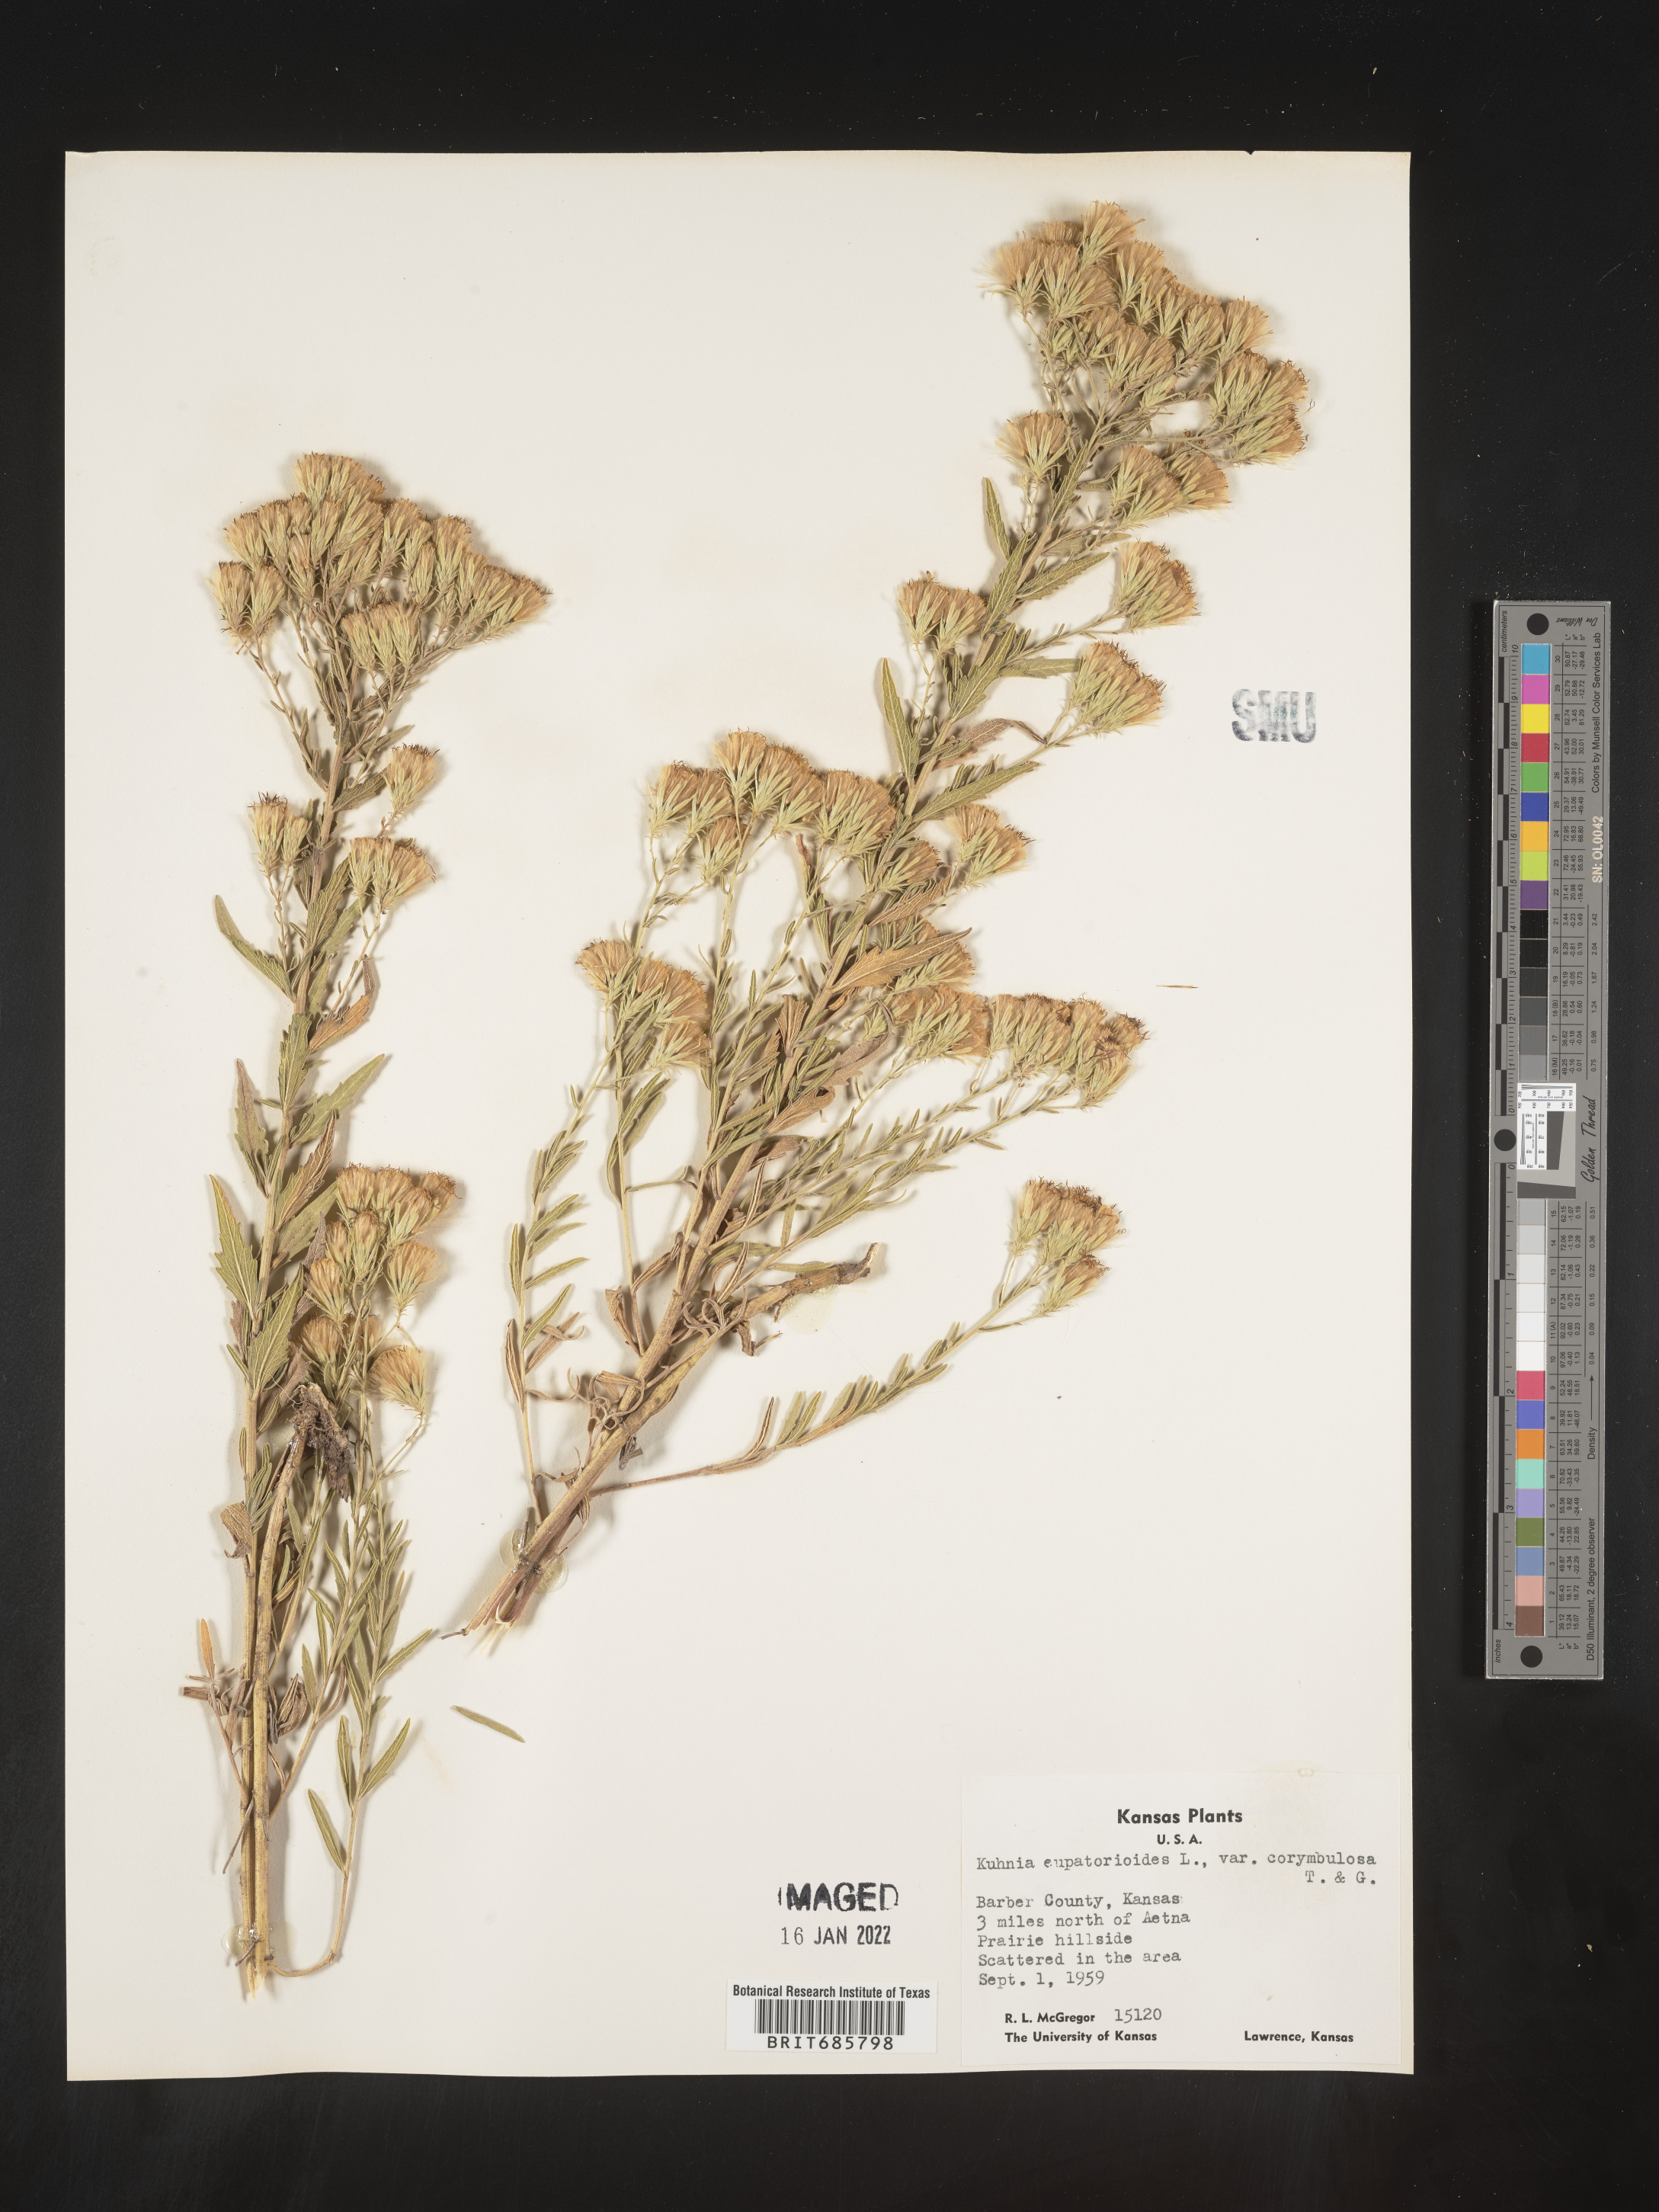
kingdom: Plantae
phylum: Tracheophyta
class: Magnoliopsida
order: Asterales
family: Asteraceae
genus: Brickellia
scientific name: Brickellia eupatorioides
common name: False boneset
